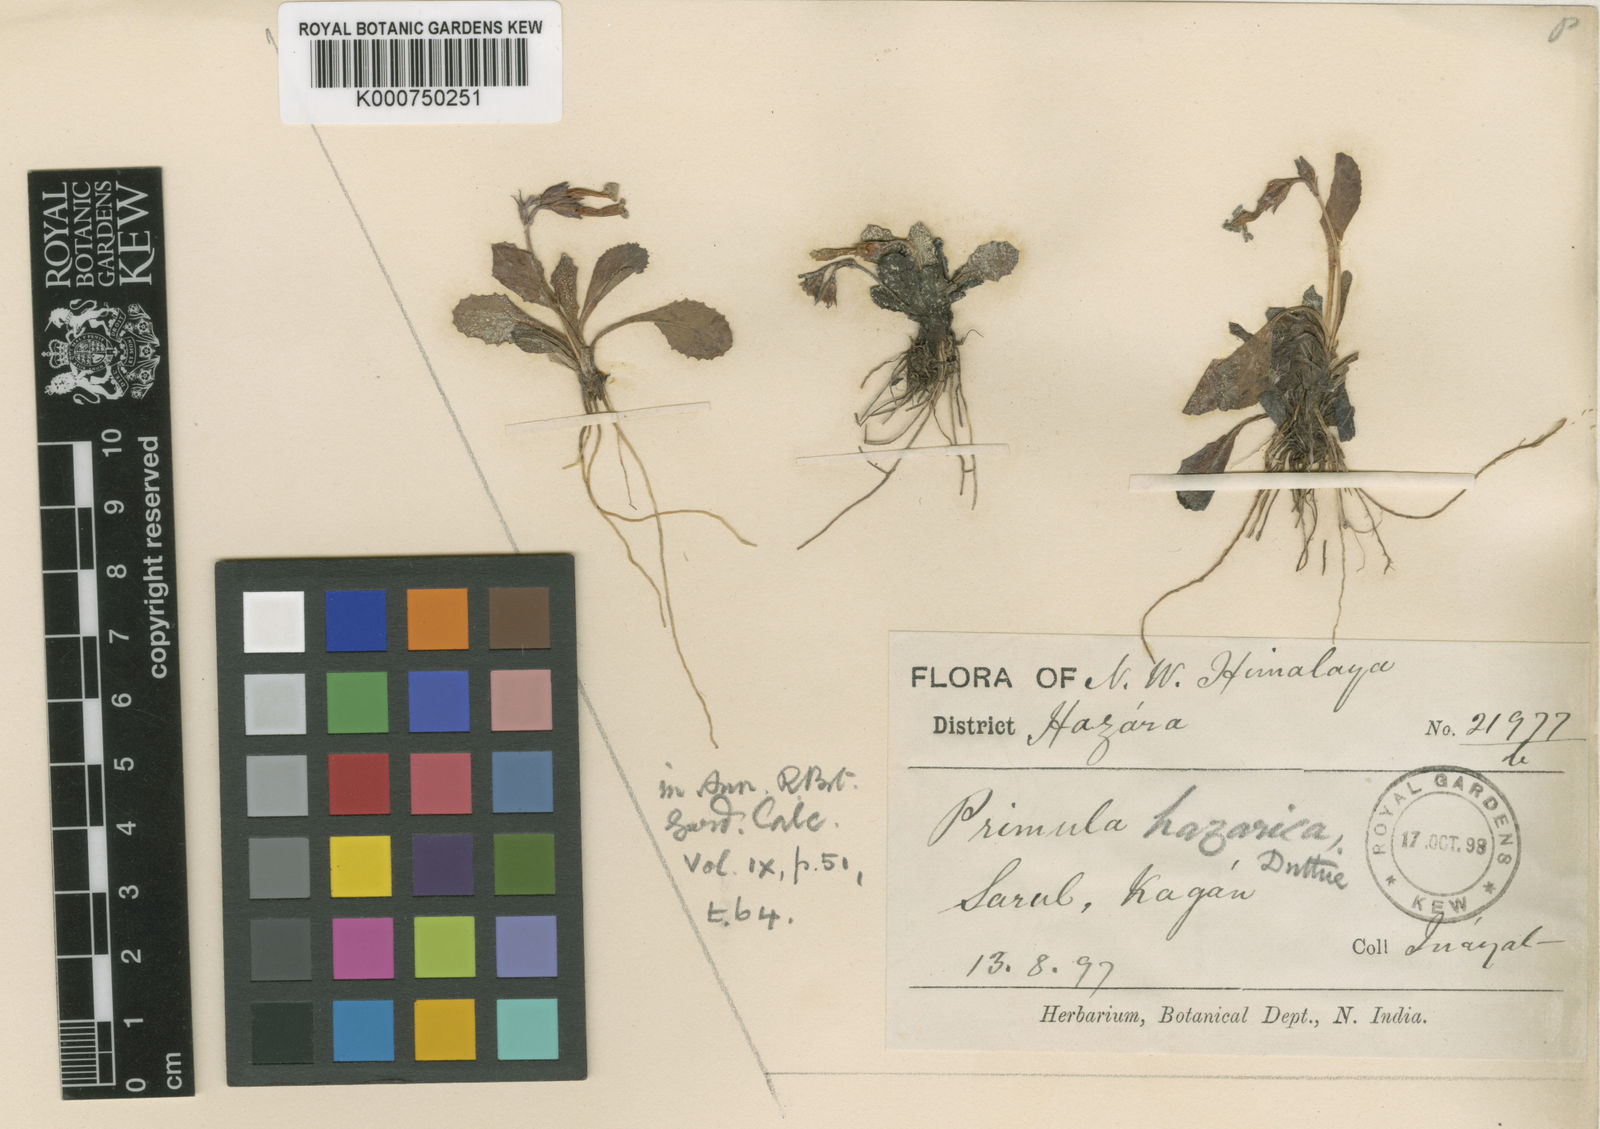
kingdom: Plantae
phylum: Tracheophyta
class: Magnoliopsida
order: Ericales
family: Primulaceae
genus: Primula
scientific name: Primula hazarica
